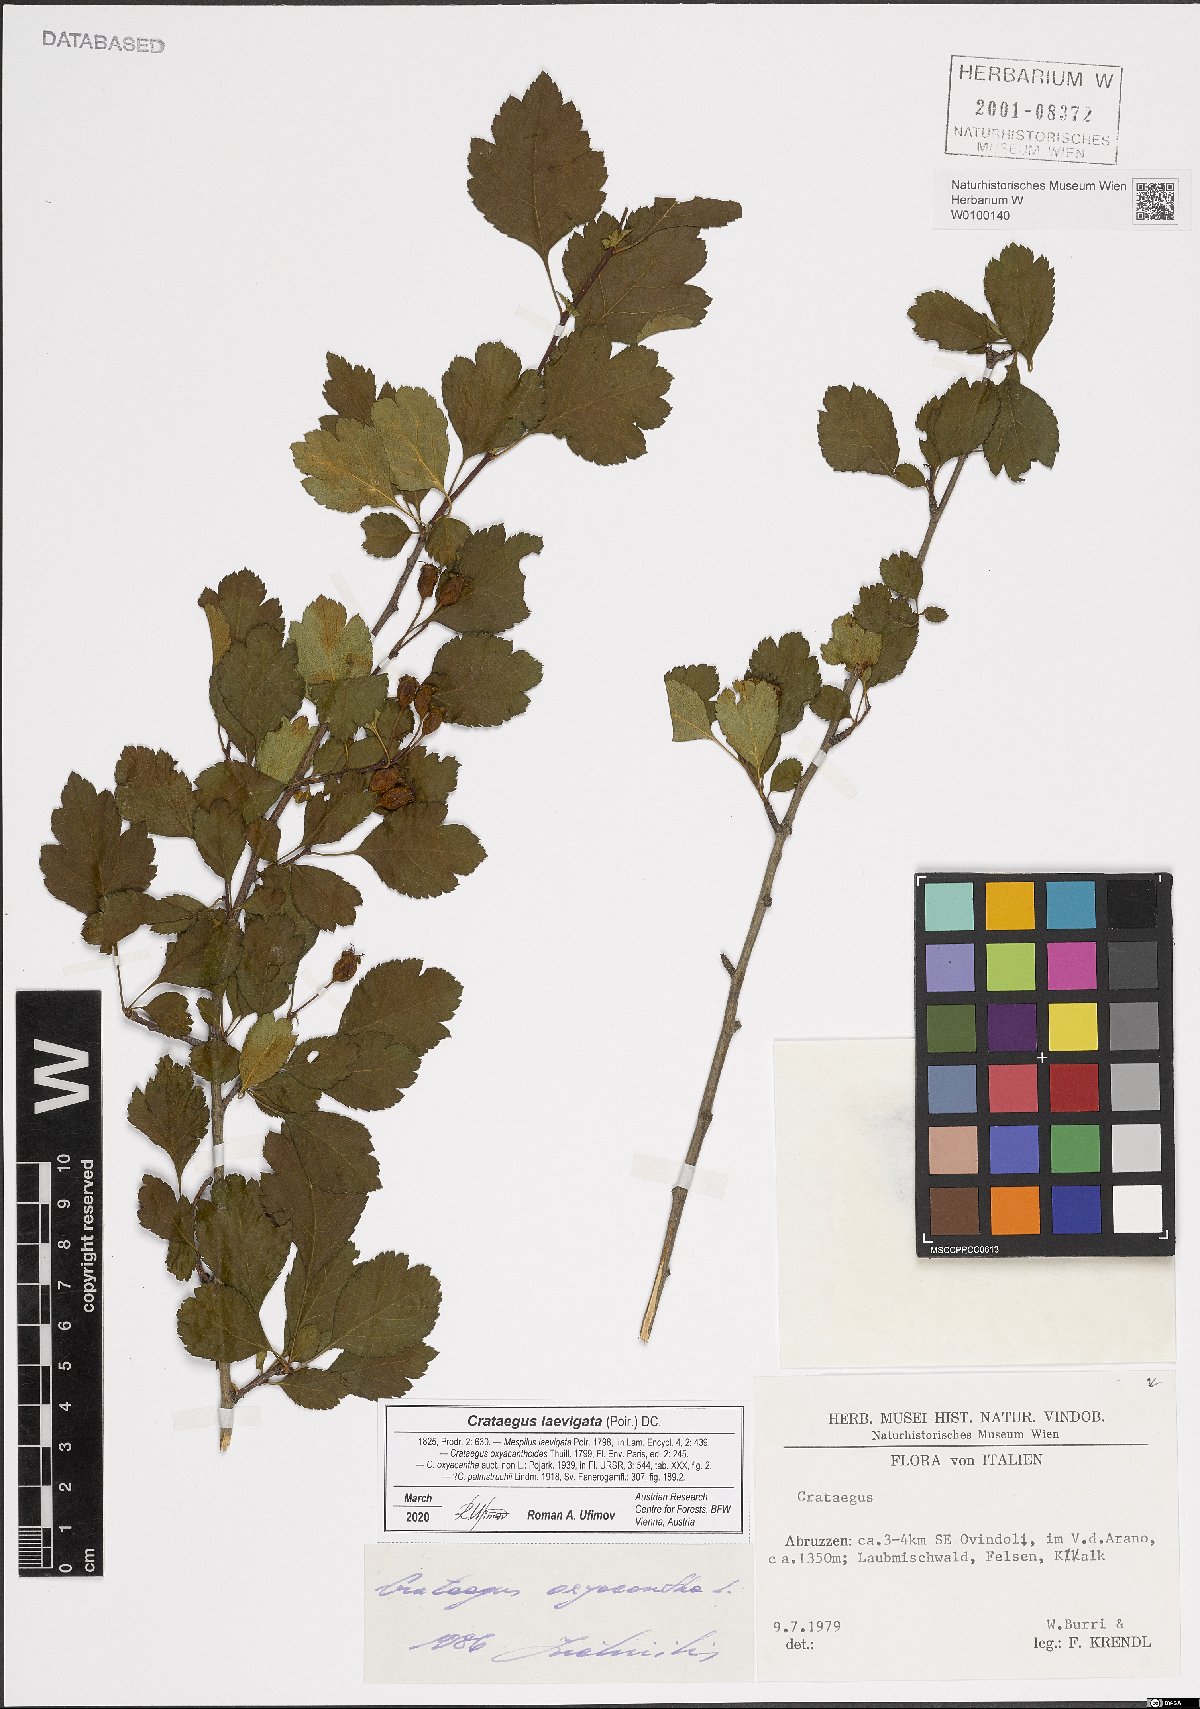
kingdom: Plantae
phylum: Tracheophyta
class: Magnoliopsida
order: Rosales
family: Rosaceae
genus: Crataegus
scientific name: Crataegus laevigata
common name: Midland hawthorn
